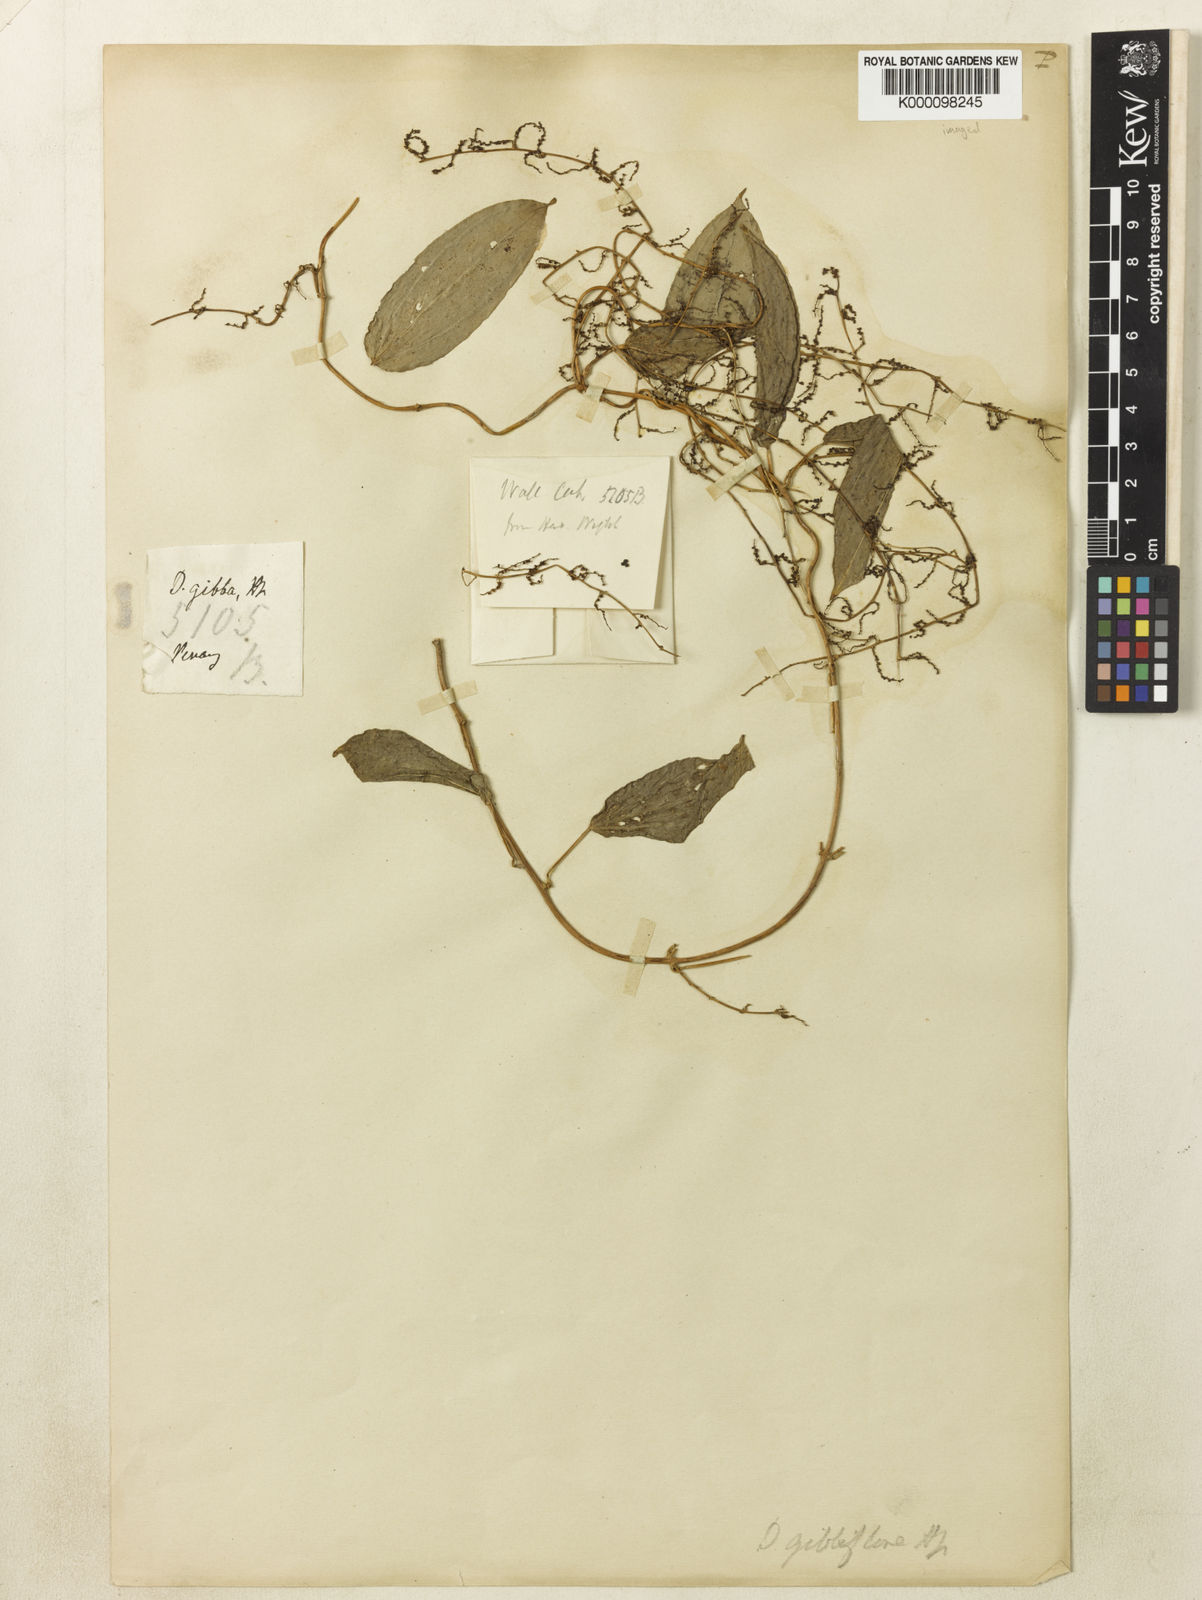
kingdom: Plantae
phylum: Tracheophyta
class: Liliopsida
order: Dioscoreales
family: Dioscoreaceae
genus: Dioscorea
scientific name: Dioscorea filiformis
